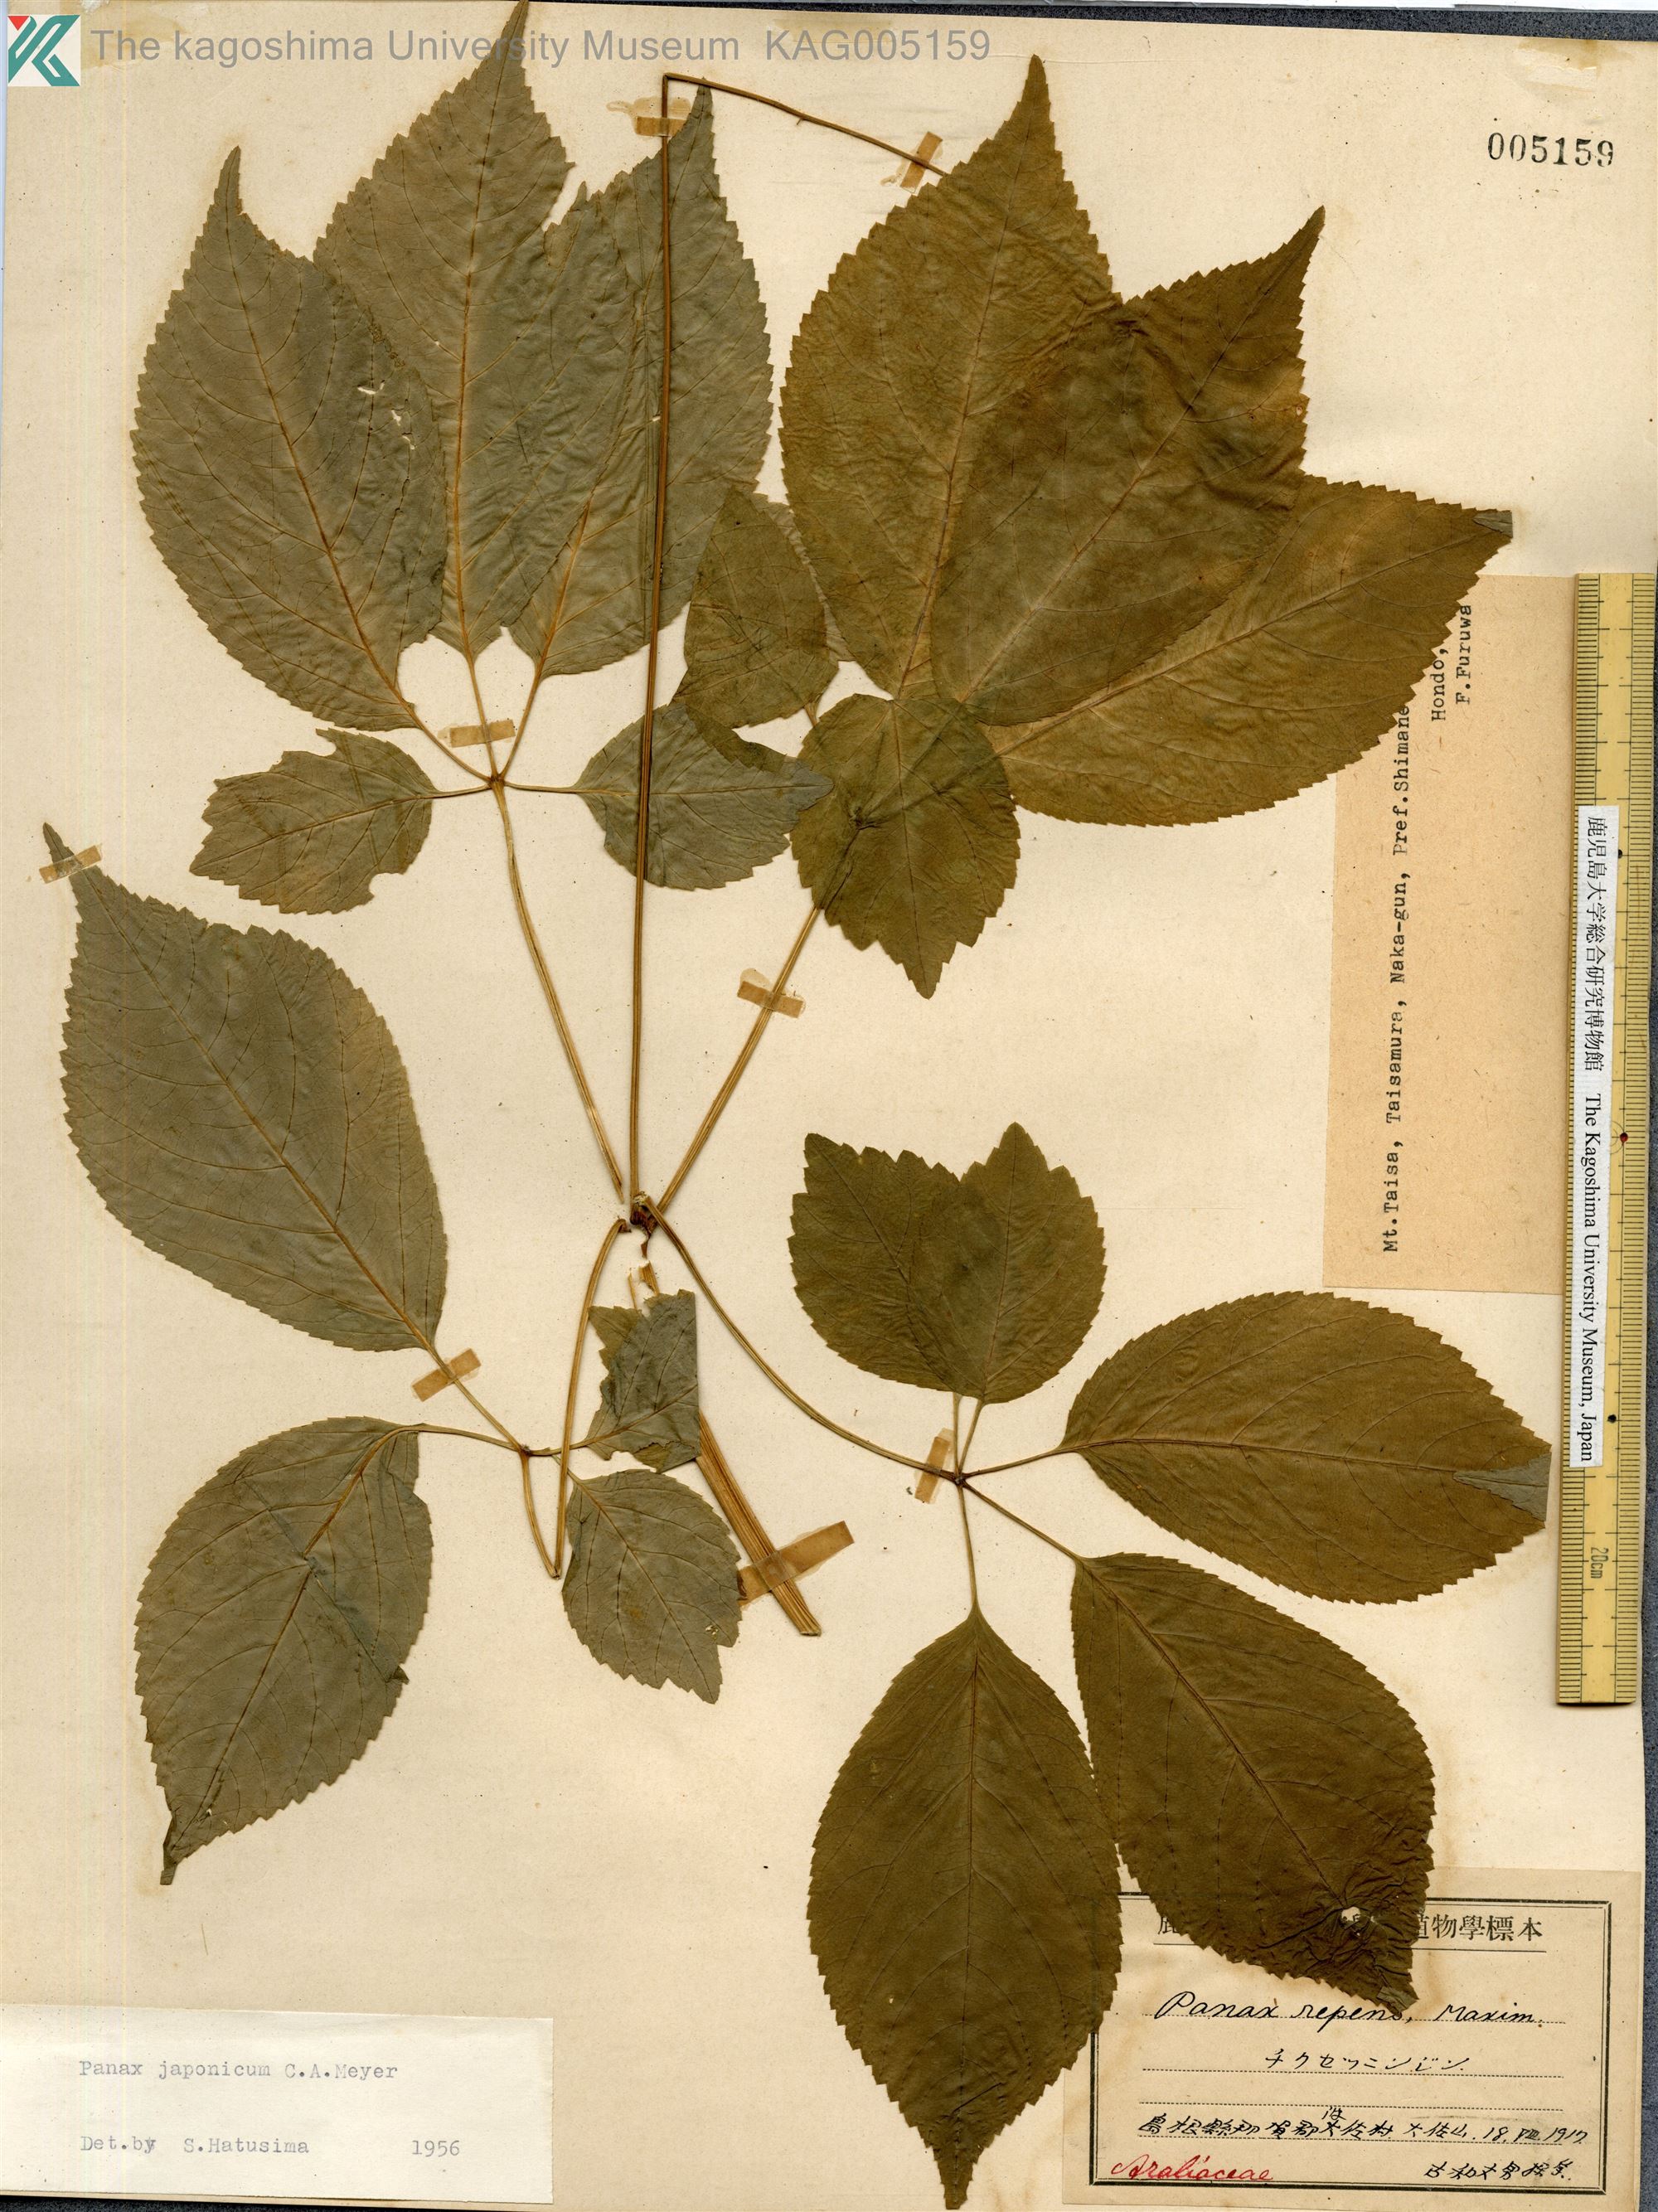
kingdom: Plantae
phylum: Tracheophyta
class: Magnoliopsida
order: Apiales
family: Araliaceae
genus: Panax
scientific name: Panax japonicus
